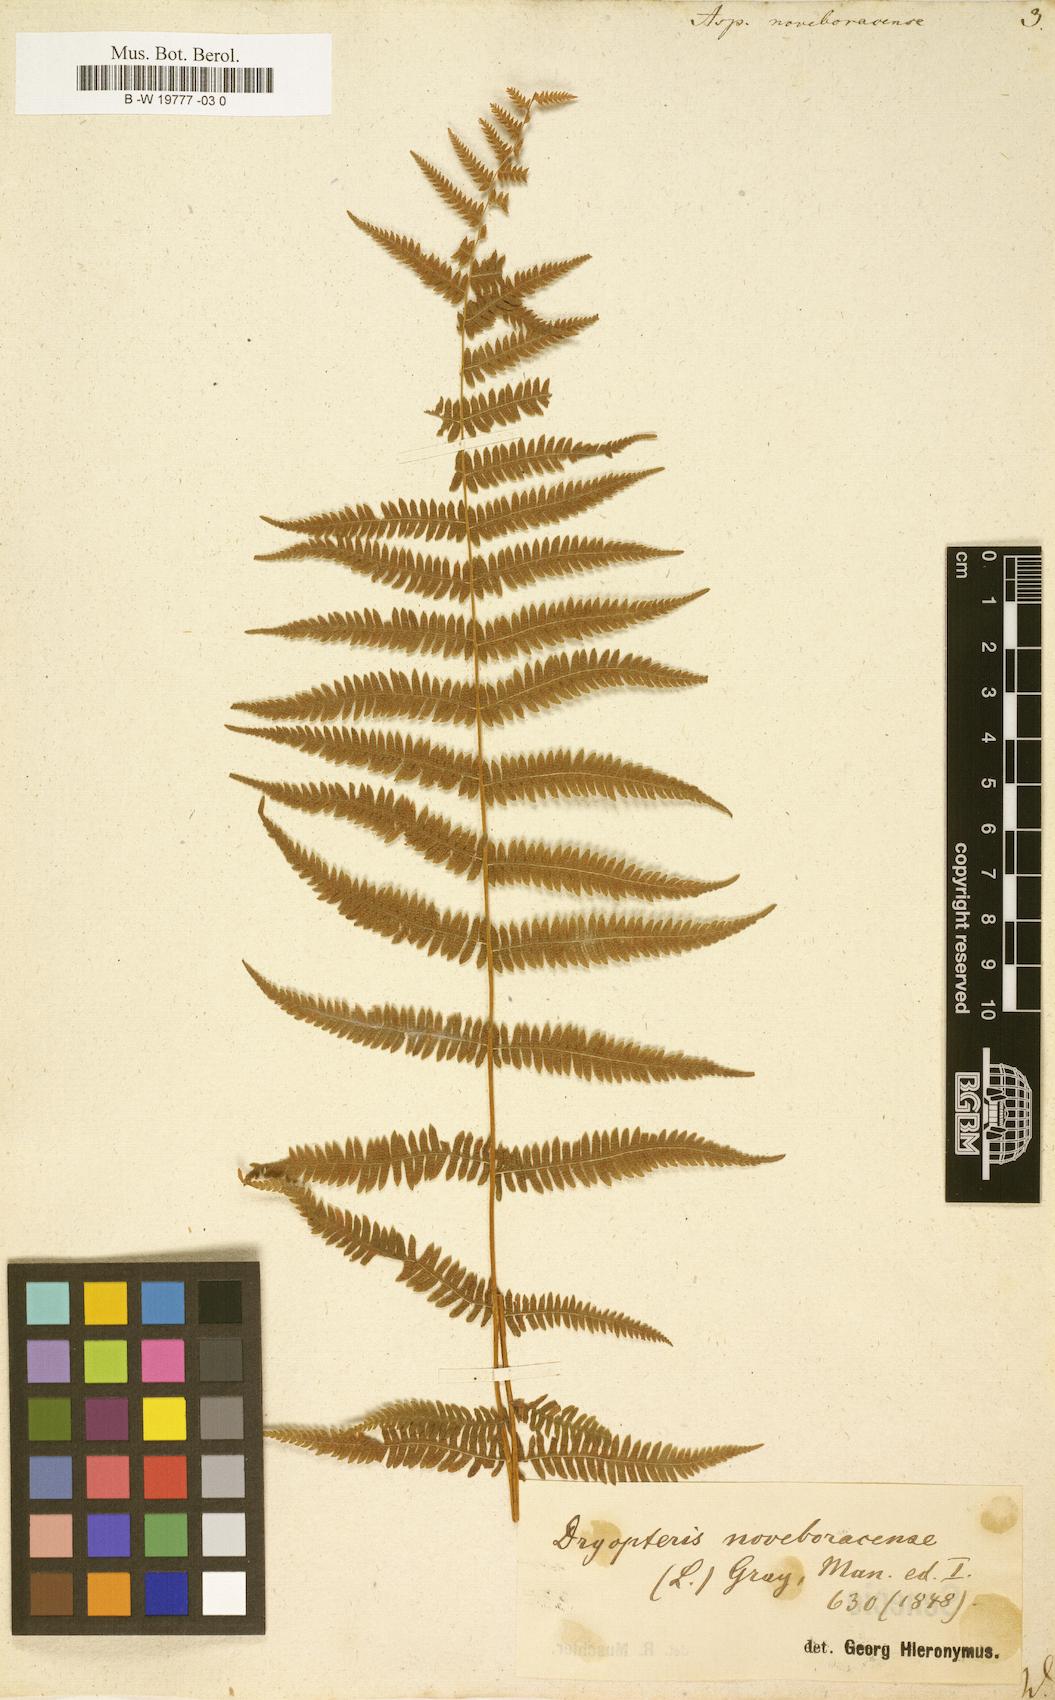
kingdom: Plantae
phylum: Tracheophyta
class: Polypodiopsida
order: Polypodiales
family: Thelypteridaceae
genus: Amauropelta
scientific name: Amauropelta noveboracensis
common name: New york fern
